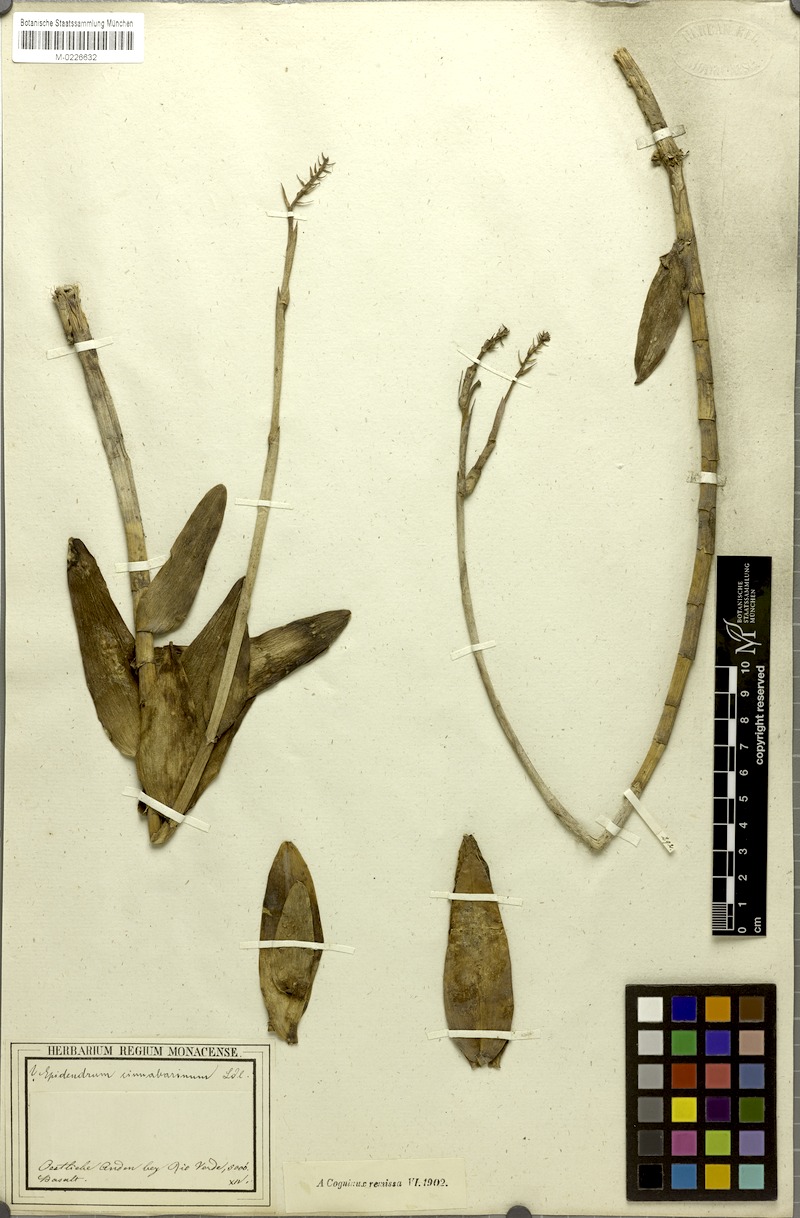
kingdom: Plantae
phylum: Tracheophyta
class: Liliopsida
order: Asparagales
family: Orchidaceae
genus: Epidendrum
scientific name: Epidendrum cinnabarinum
